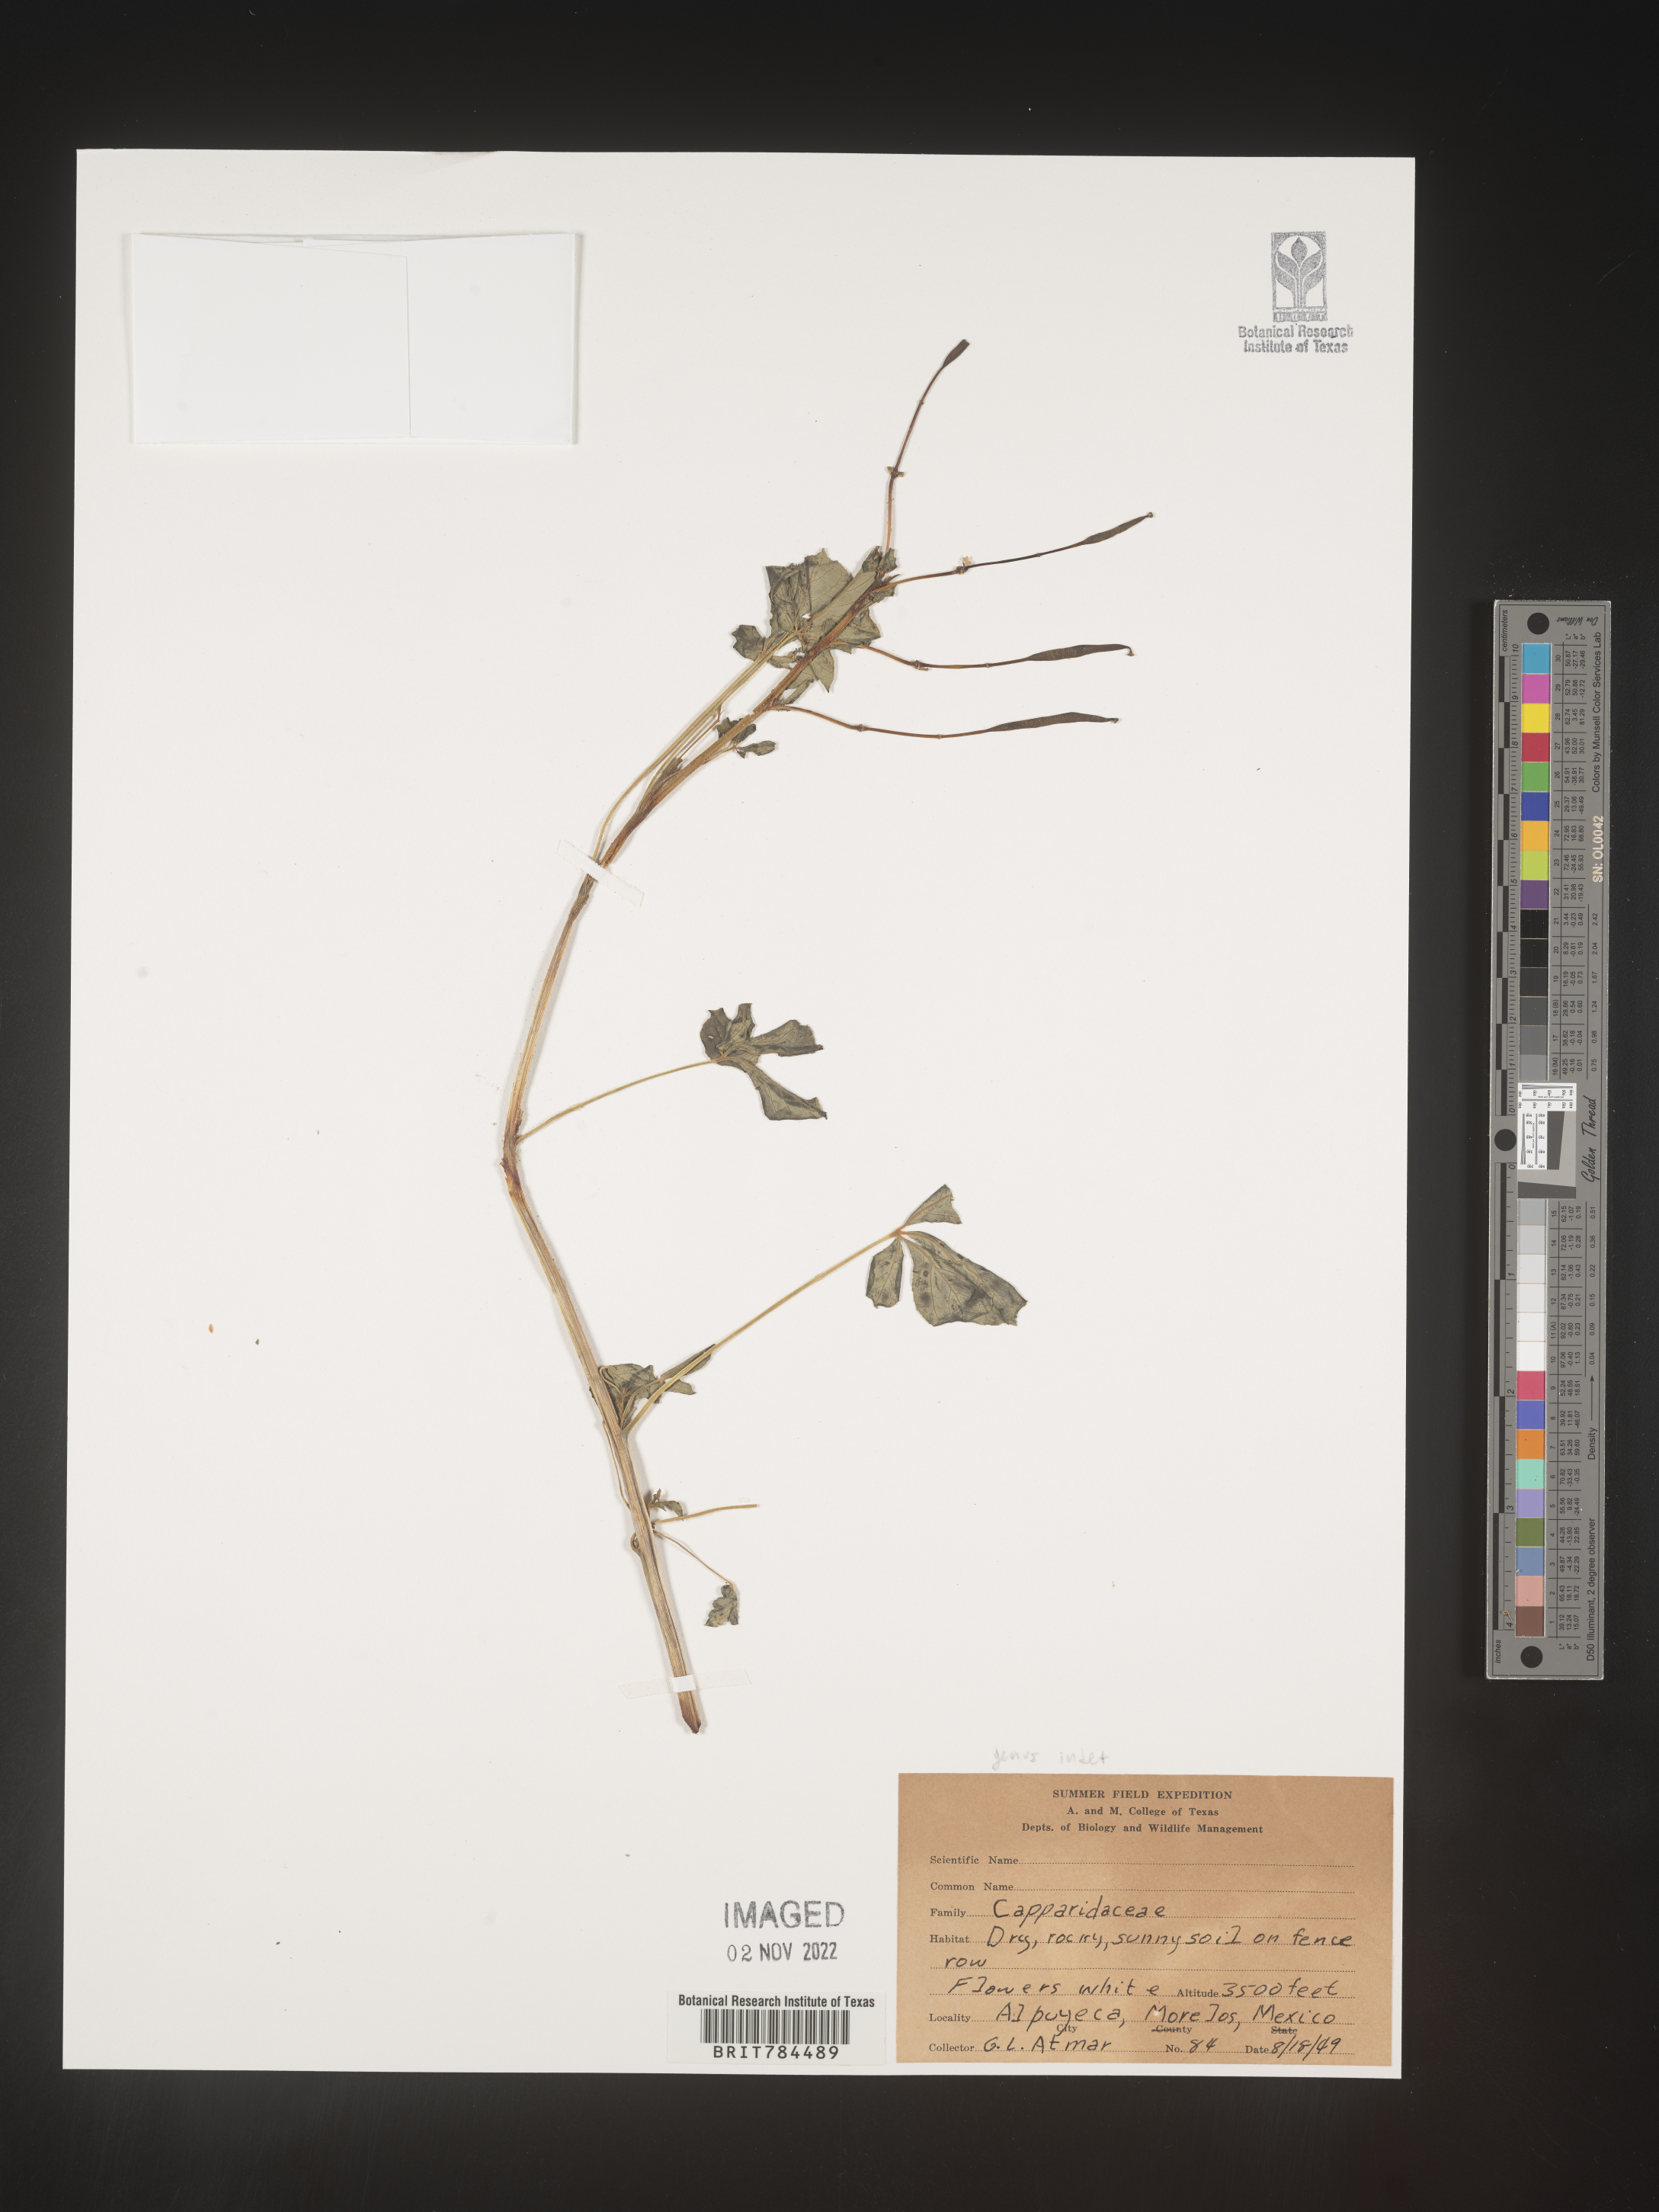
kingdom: Plantae
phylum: Tracheophyta
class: Magnoliopsida
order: Brassicales
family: Capparaceae
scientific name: Capparaceae
